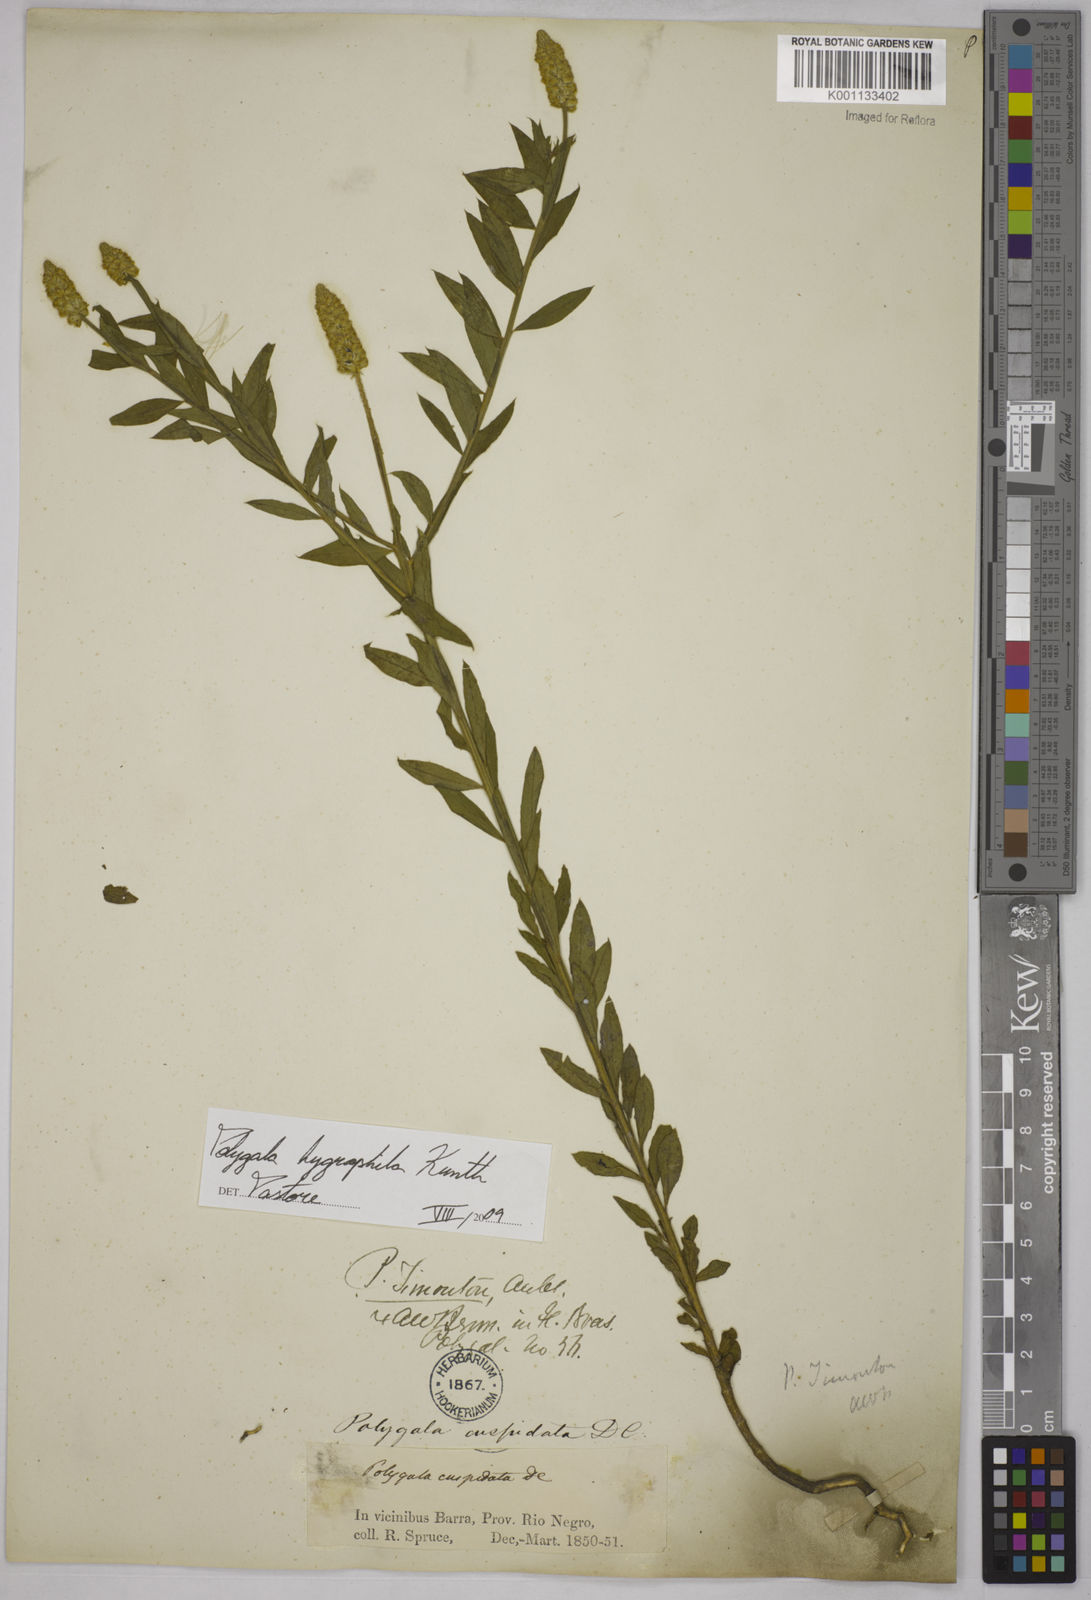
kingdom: Plantae
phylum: Tracheophyta
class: Magnoliopsida
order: Fabales
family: Polygalaceae
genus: Polygala
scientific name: Polygala hygrophila
